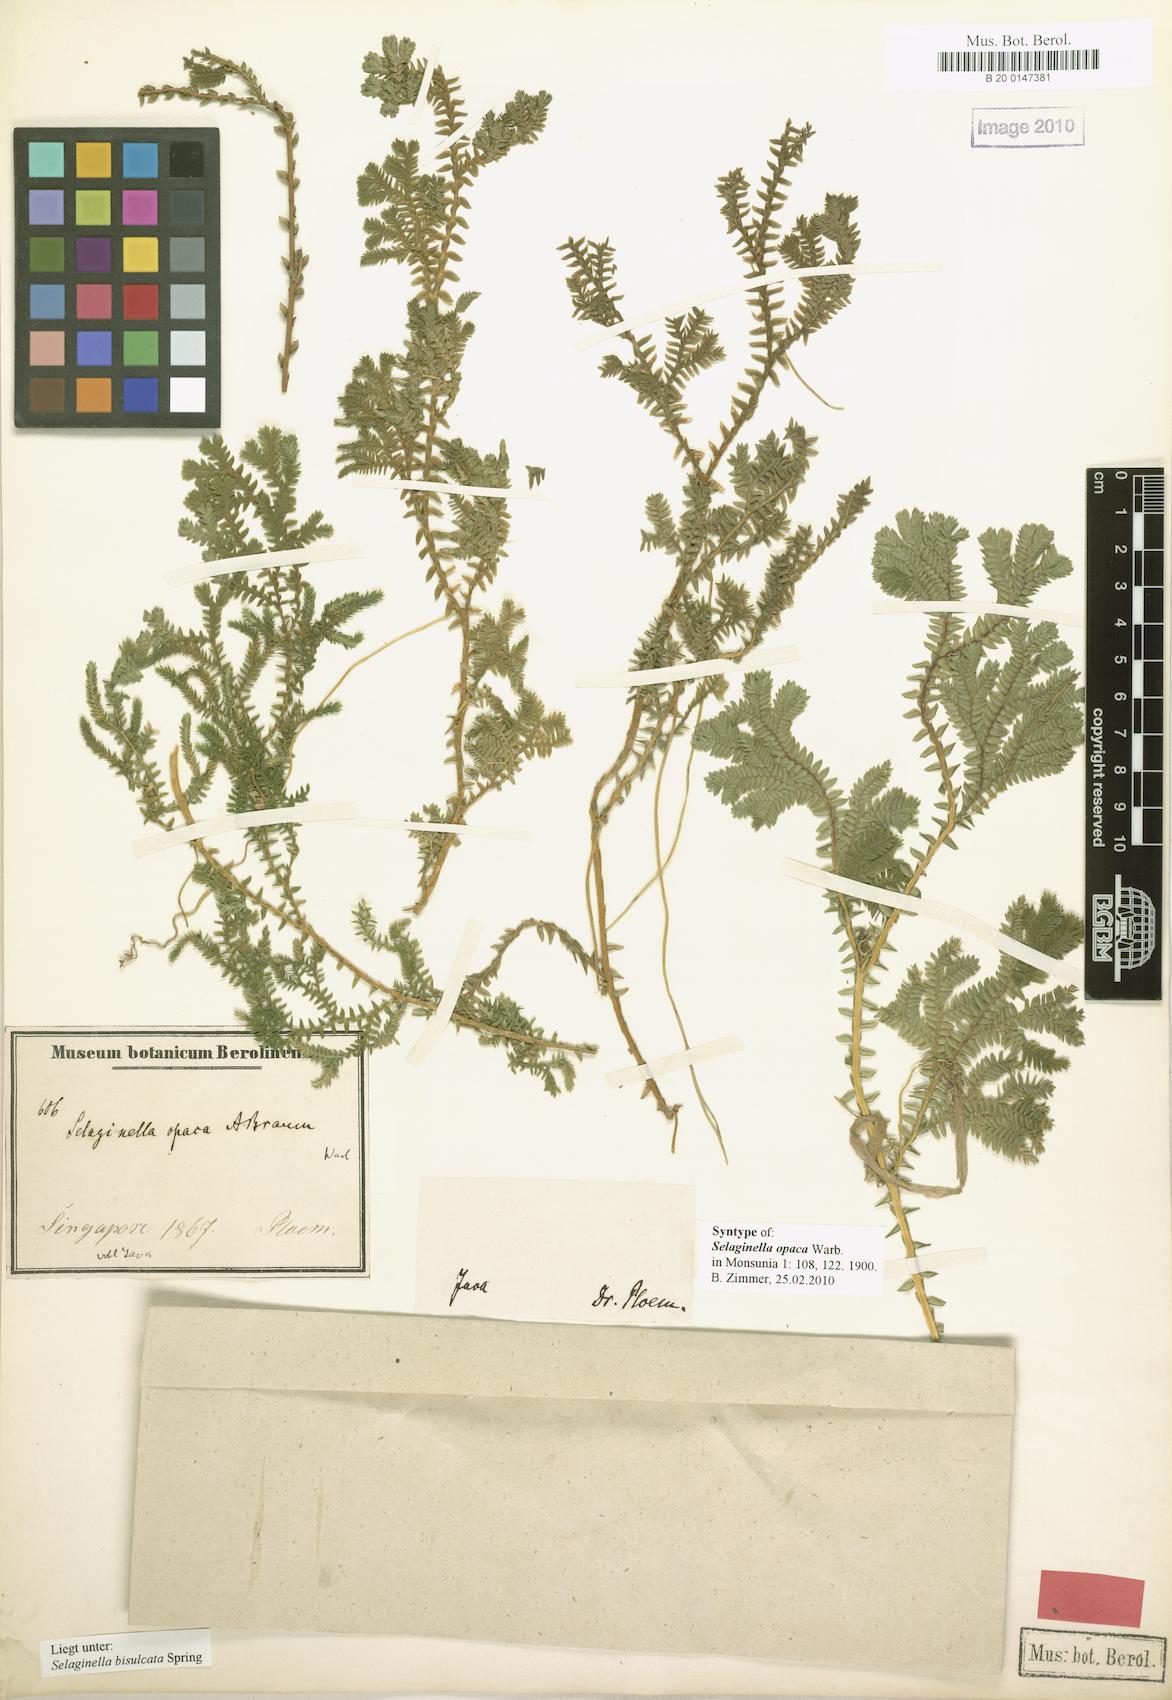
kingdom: Plantae
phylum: Tracheophyta
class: Lycopodiopsida
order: Selaginellales
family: Selaginellaceae
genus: Selaginella
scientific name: Selaginella bisulcata
